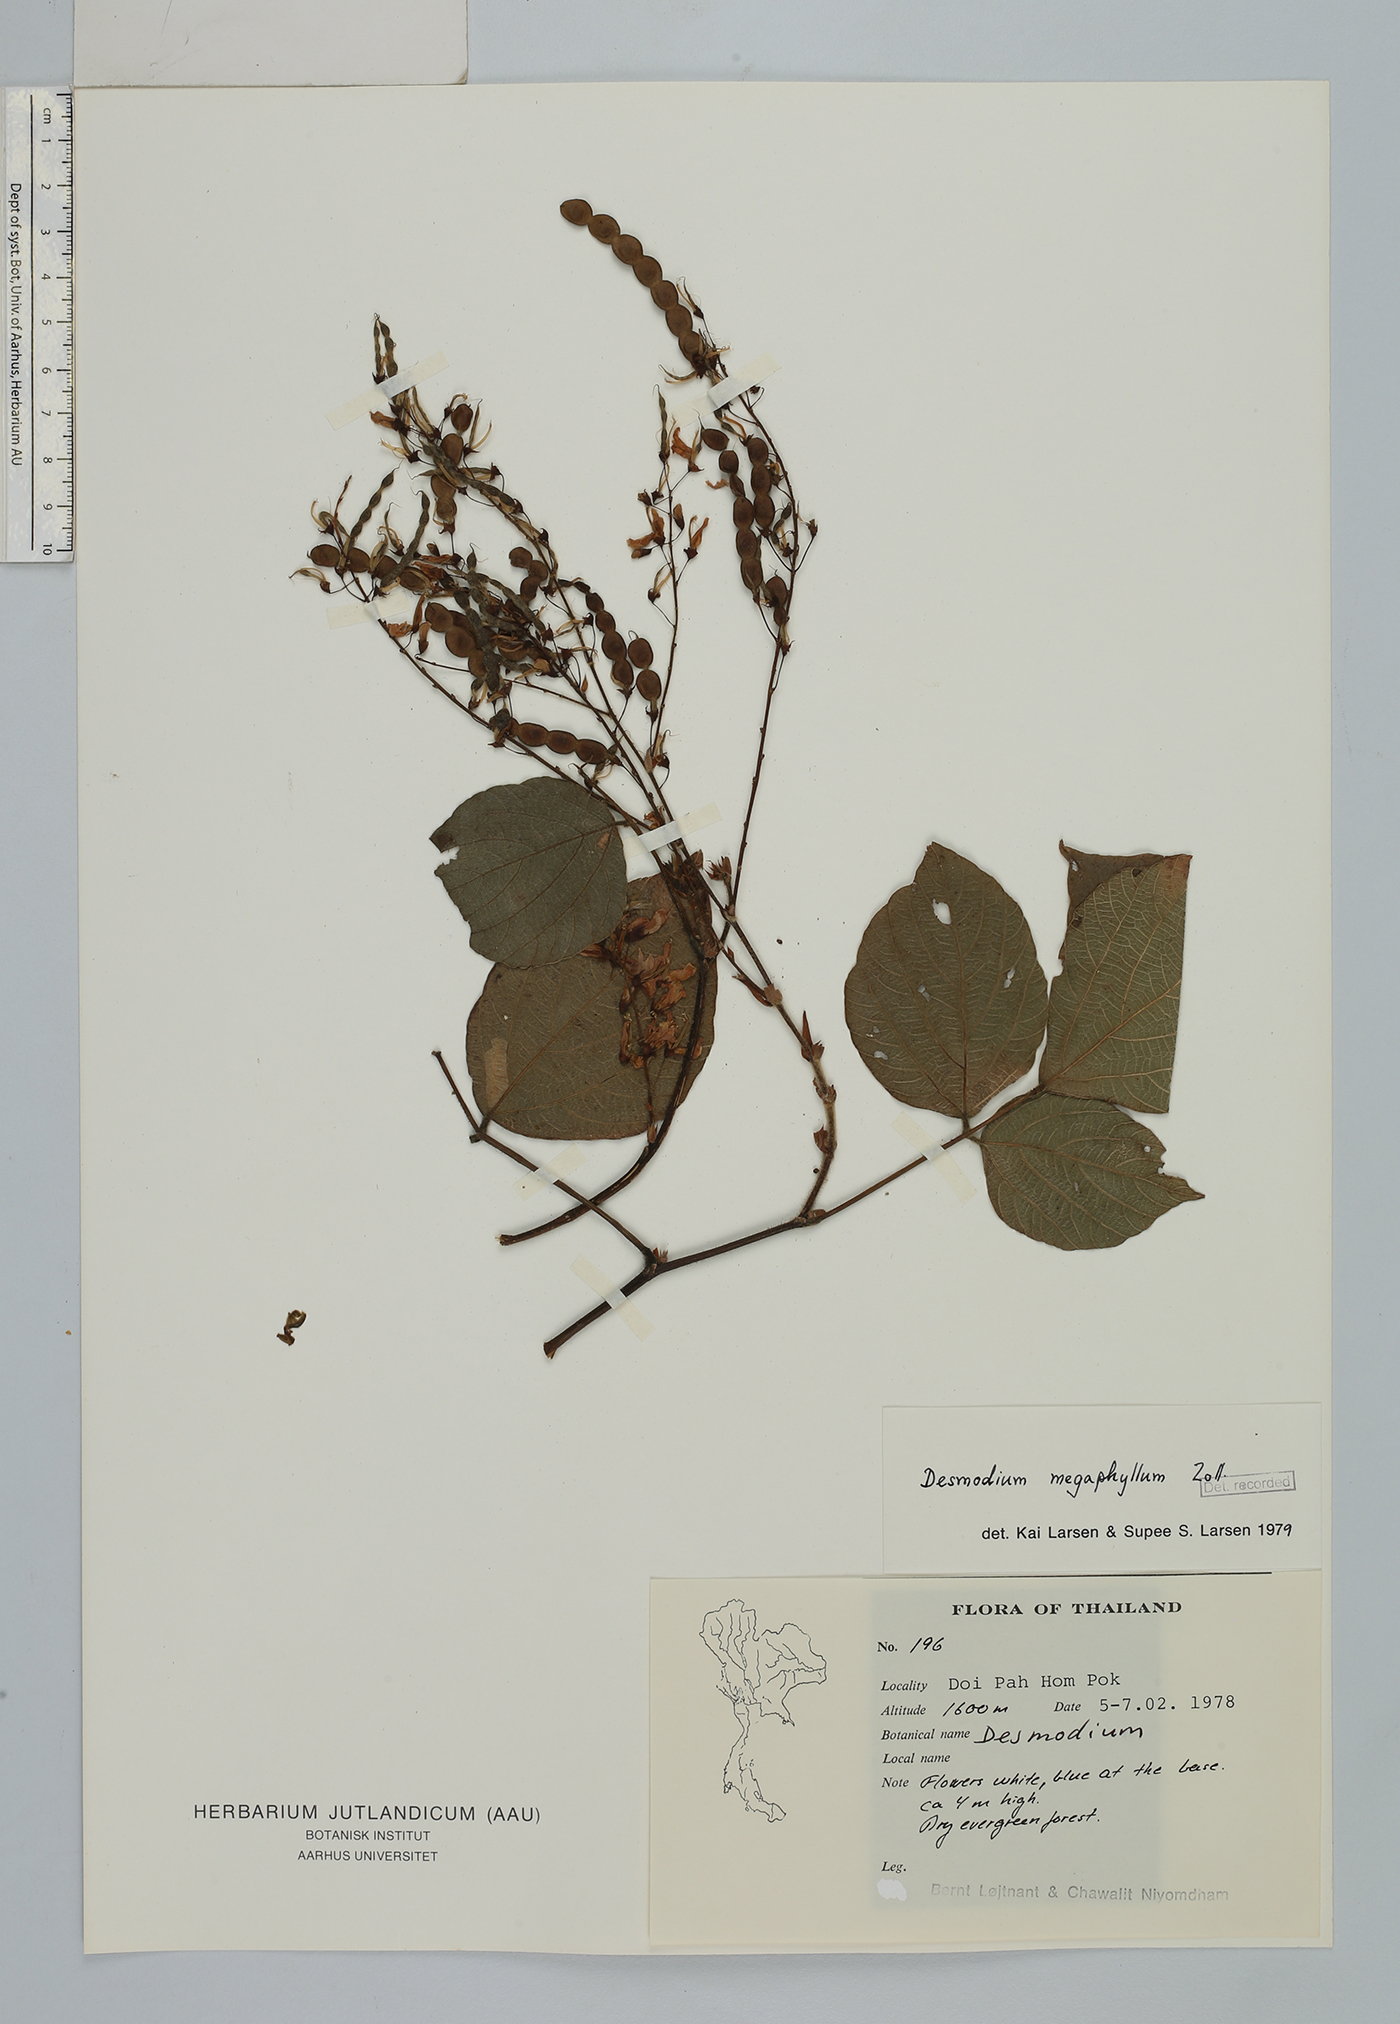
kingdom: Plantae
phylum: Tracheophyta
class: Magnoliopsida
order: Fabales
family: Fabaceae
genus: Puhuaea
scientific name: Puhuaea megaphylla
